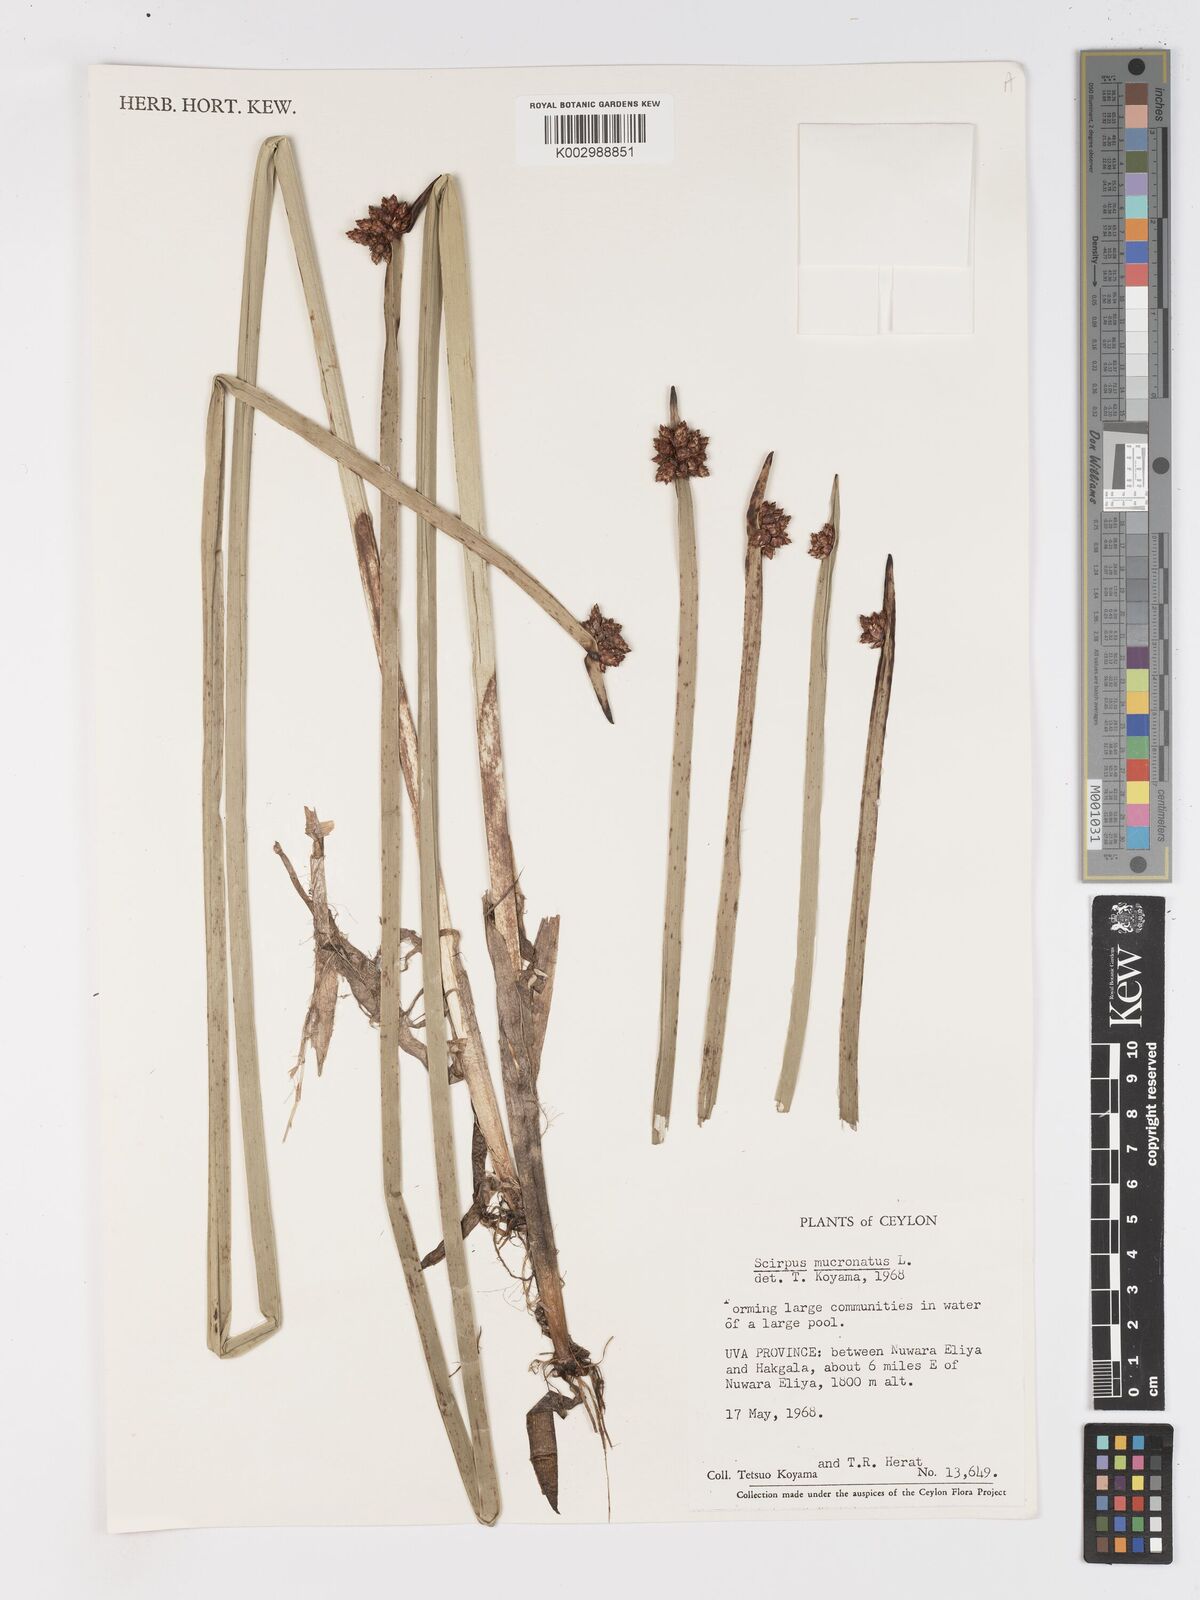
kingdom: Plantae
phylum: Tracheophyta
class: Liliopsida
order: Poales
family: Cyperaceae
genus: Schoenoplectiella
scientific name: Schoenoplectiella mucronata
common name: Bog bulrush
